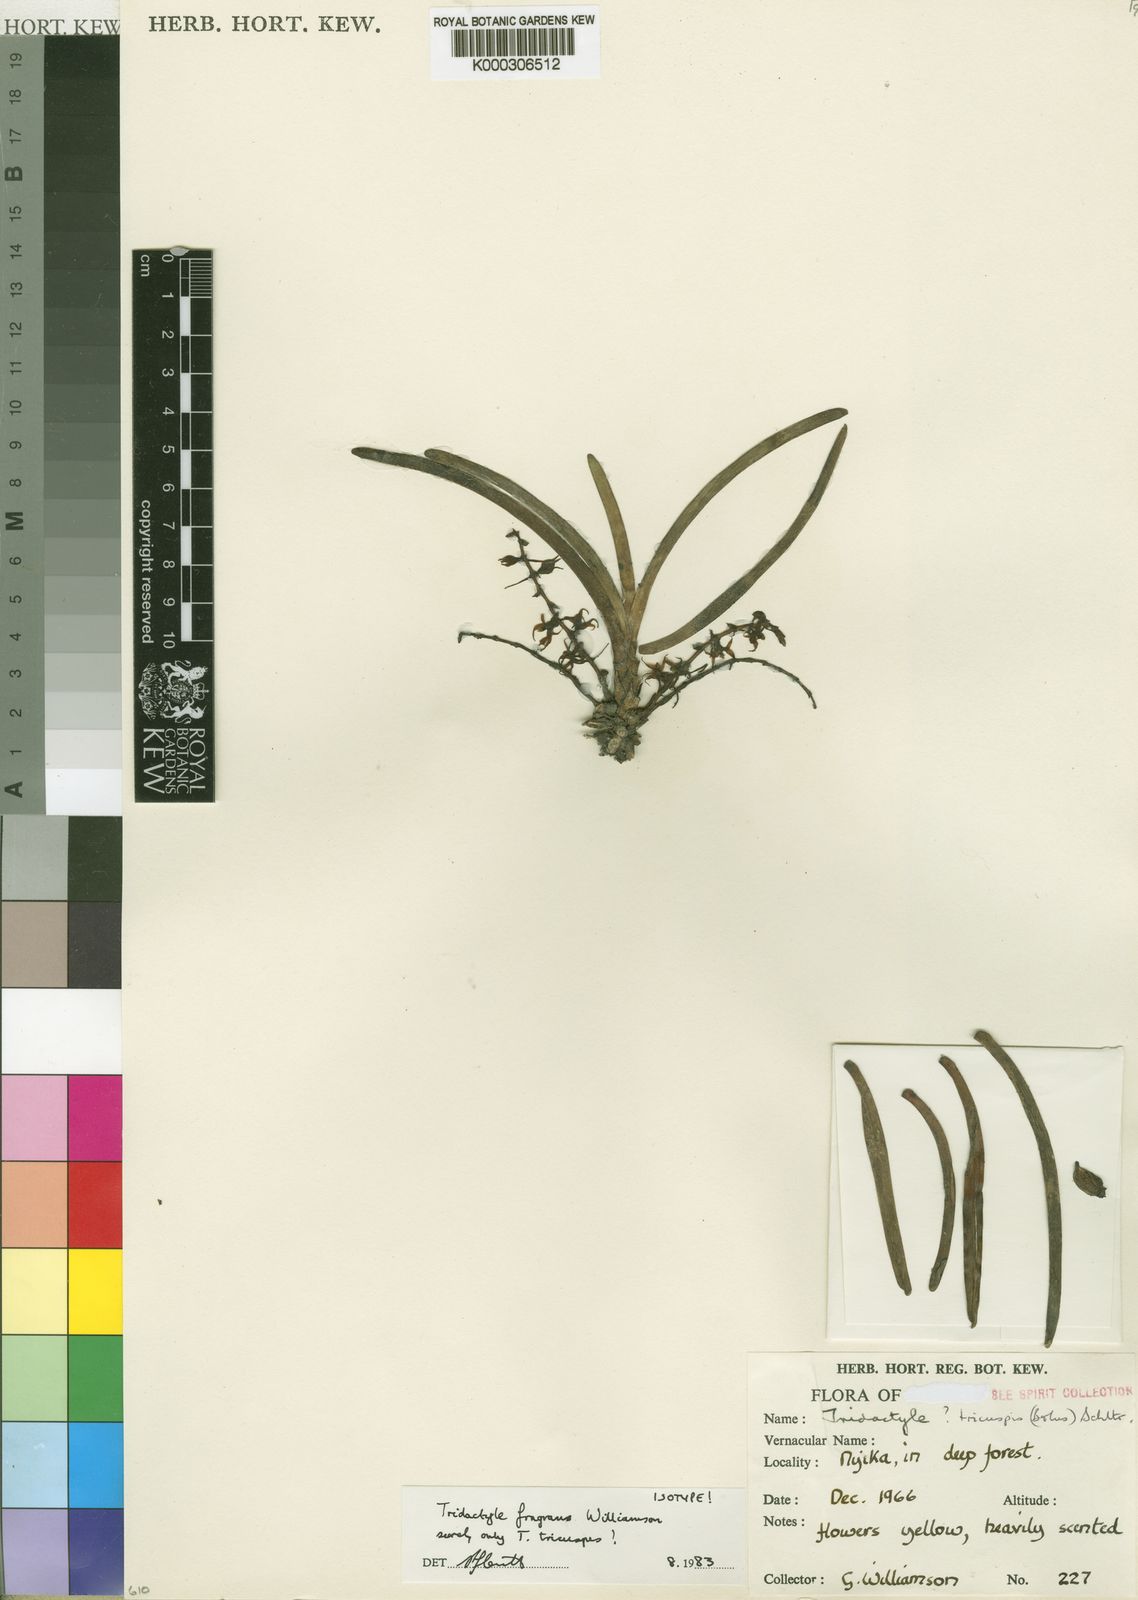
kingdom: Plantae
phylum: Tracheophyta
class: Liliopsida
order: Asparagales
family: Orchidaceae
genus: Ypsilopus
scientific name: Ypsilopus tricuspis
